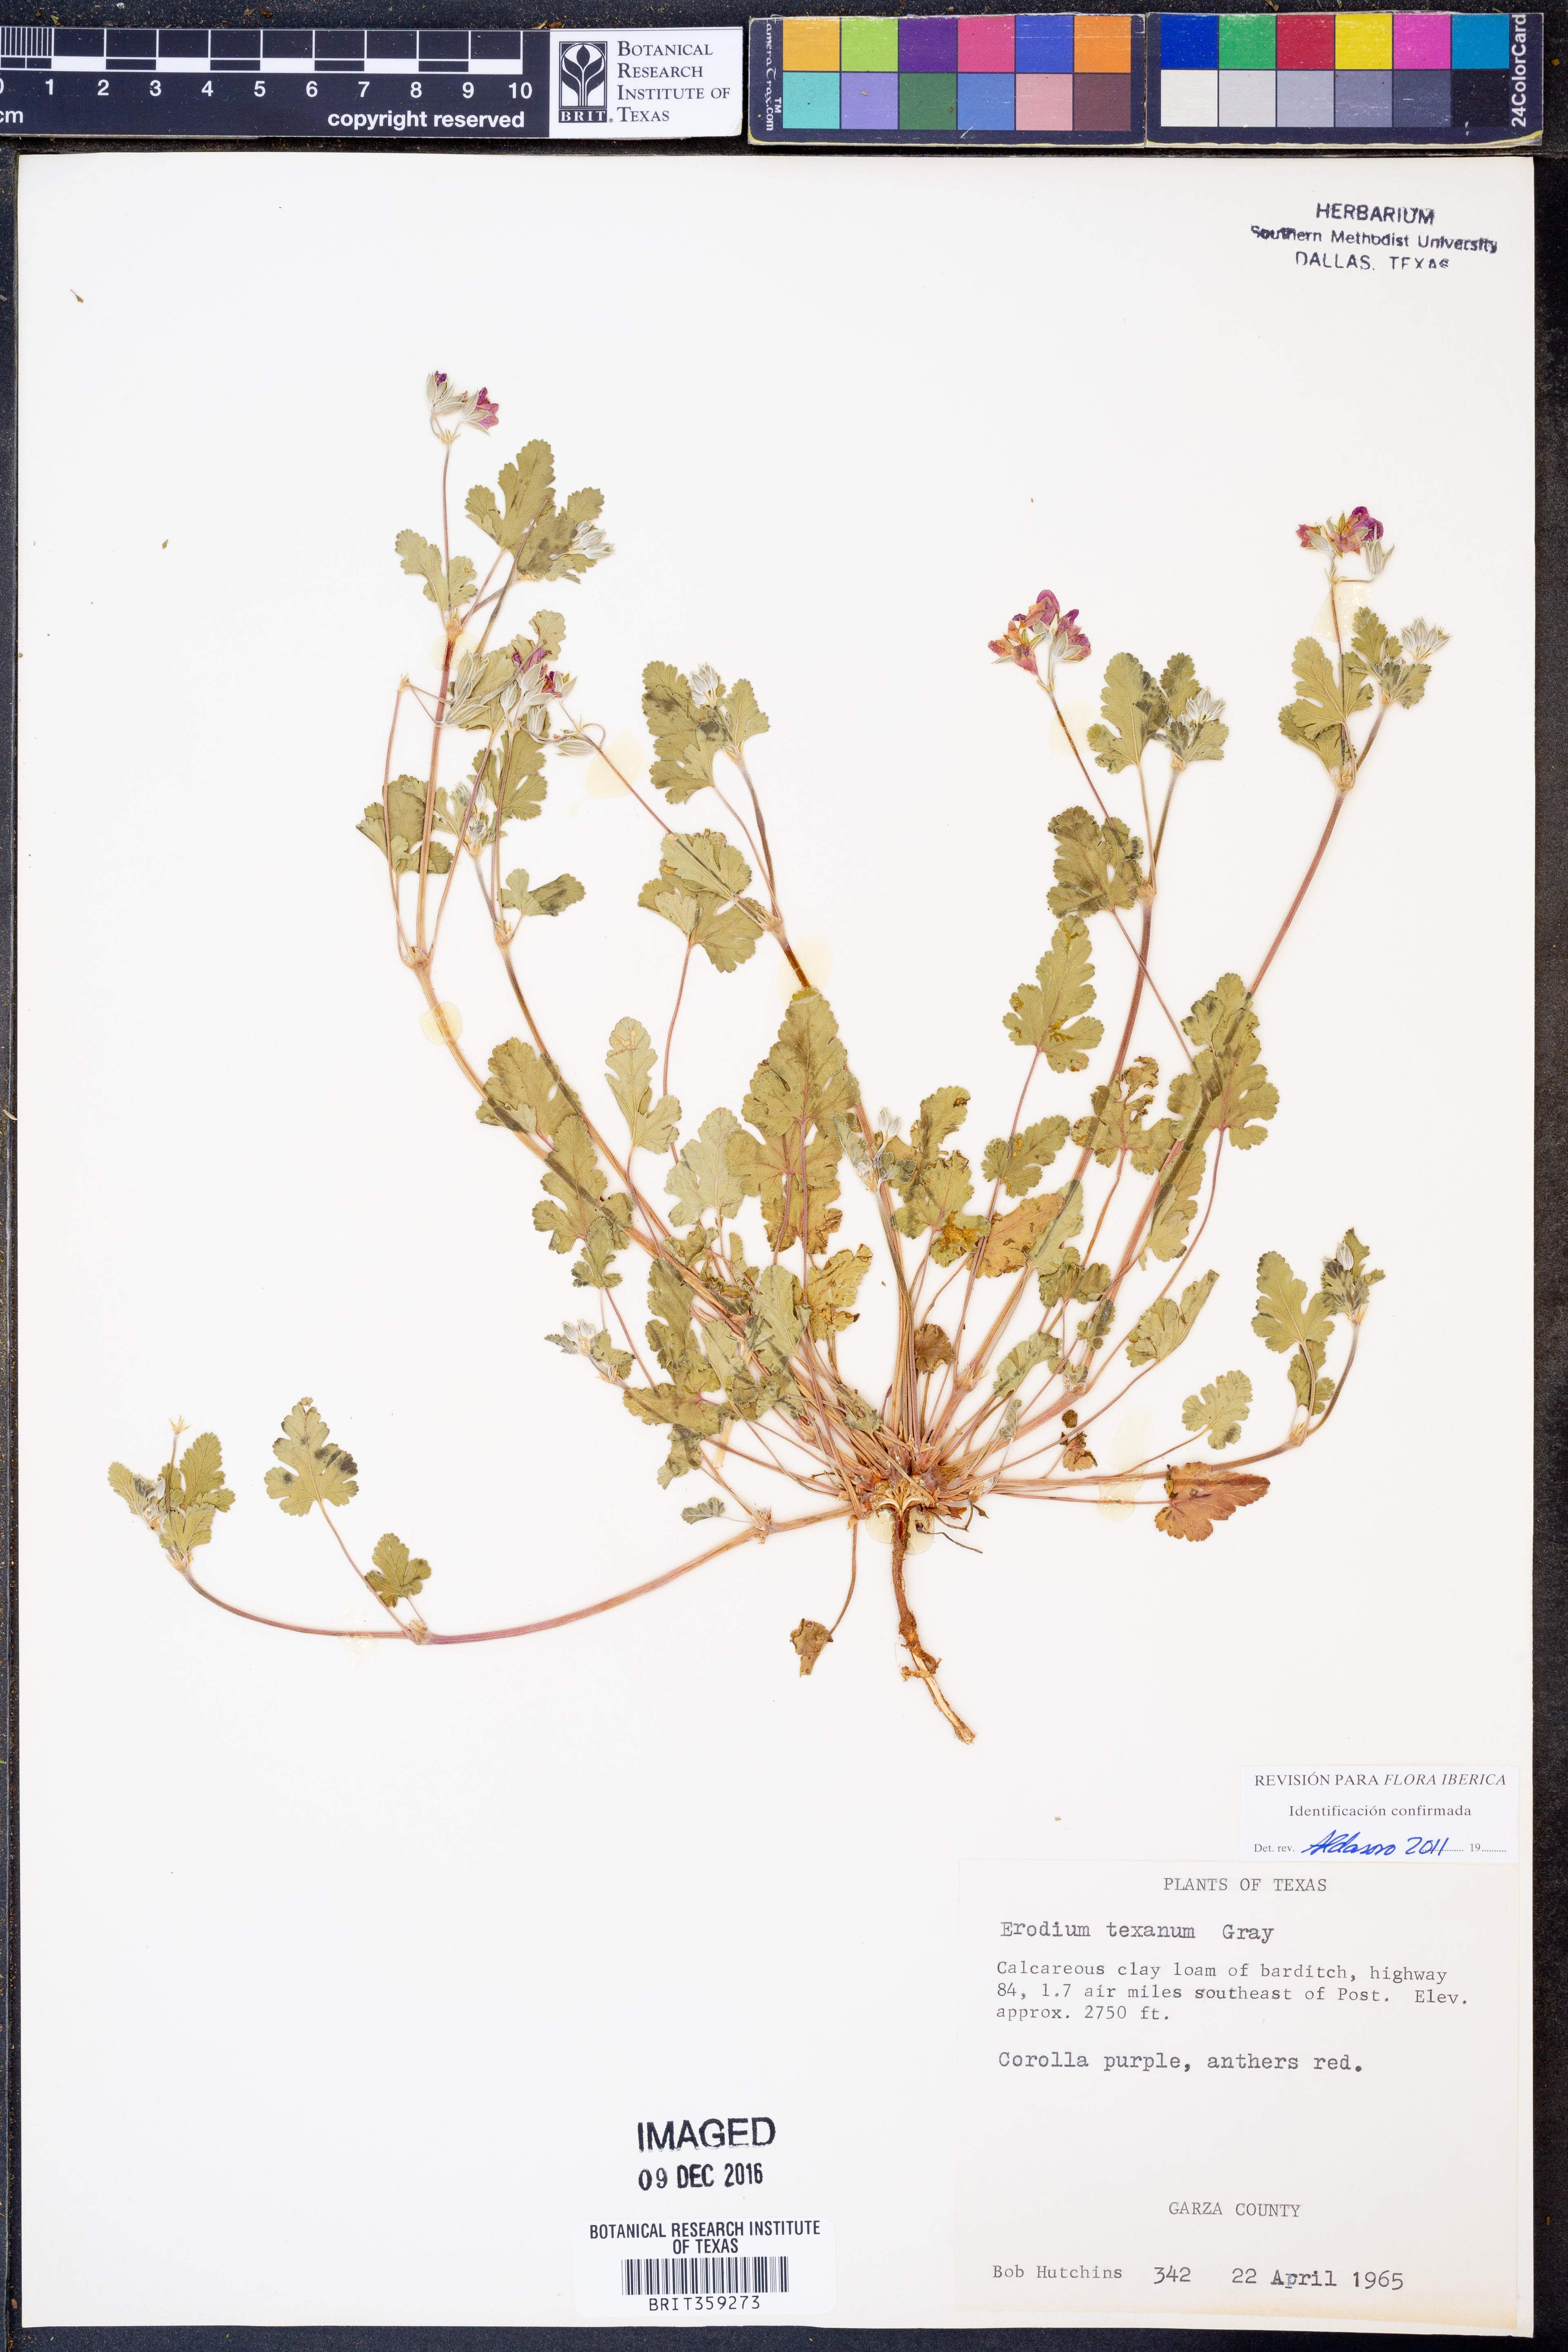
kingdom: Plantae
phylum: Tracheophyta
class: Magnoliopsida
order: Geraniales
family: Geraniaceae
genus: Erodium
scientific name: Erodium texanum
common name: Texas stork's-bill
